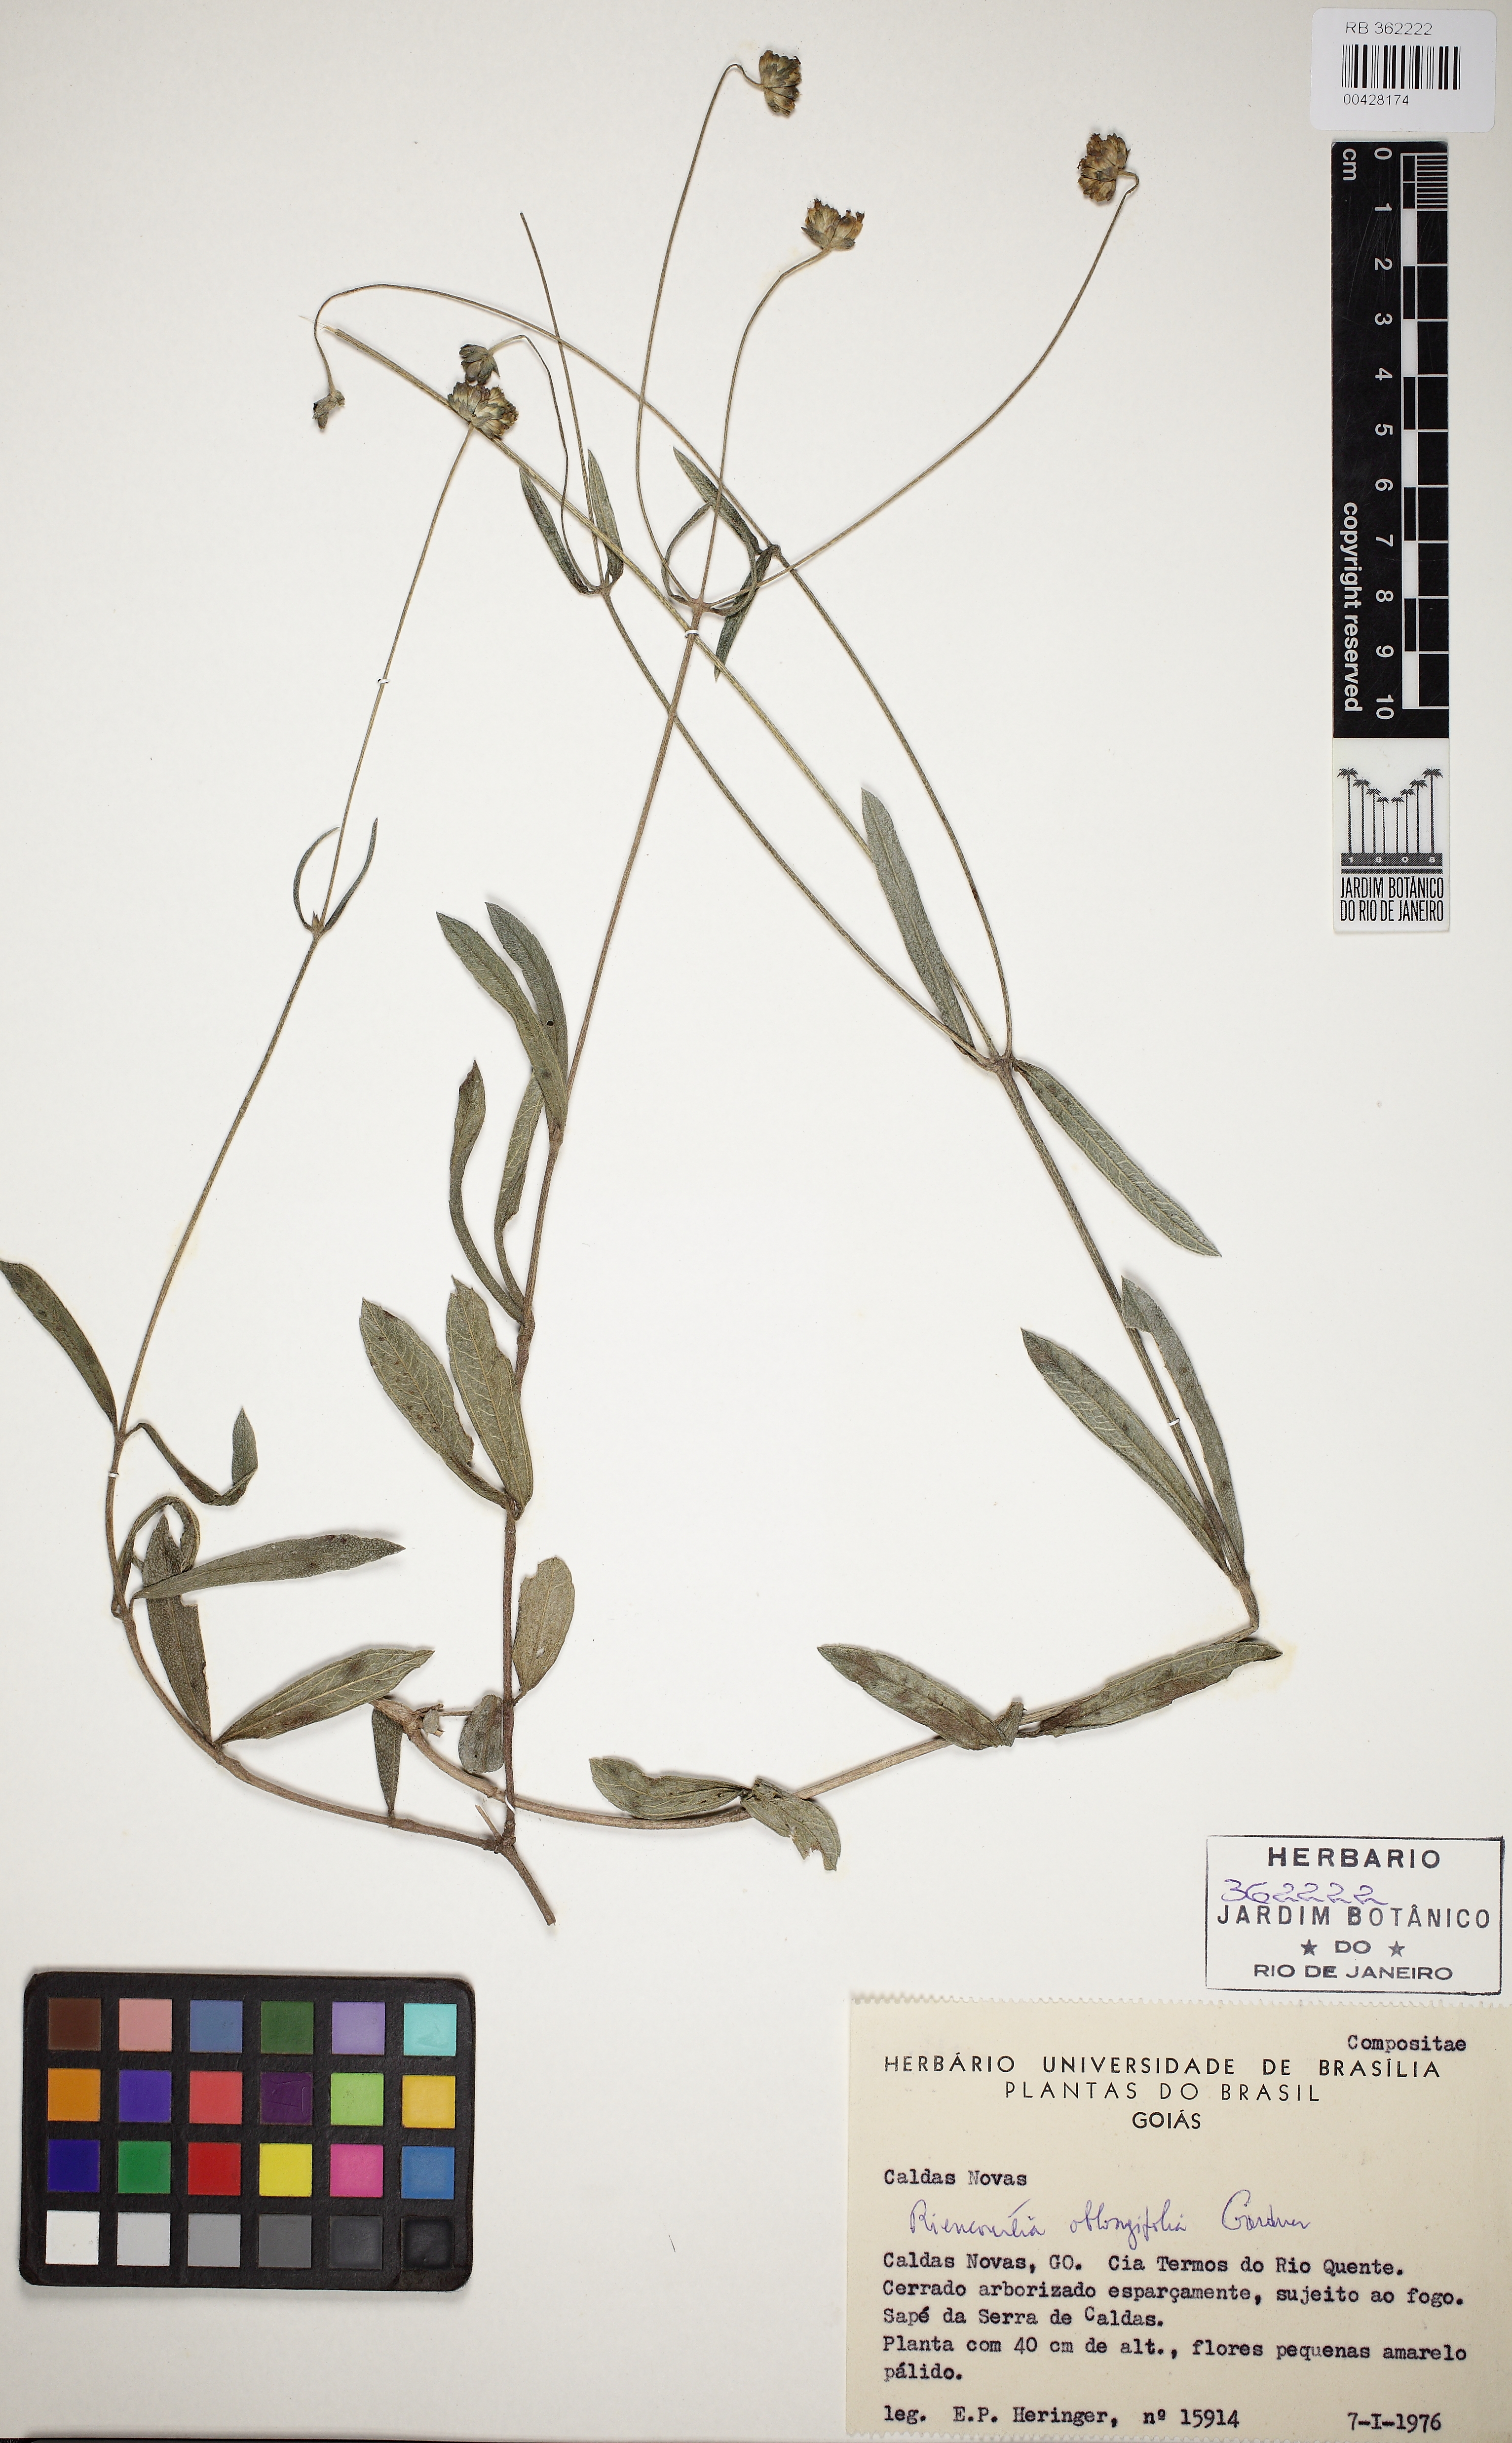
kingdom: Plantae
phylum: Tracheophyta
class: Magnoliopsida
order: Asterales
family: Asteraceae
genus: Riencourtia
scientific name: Riencourtia oblongifolia
